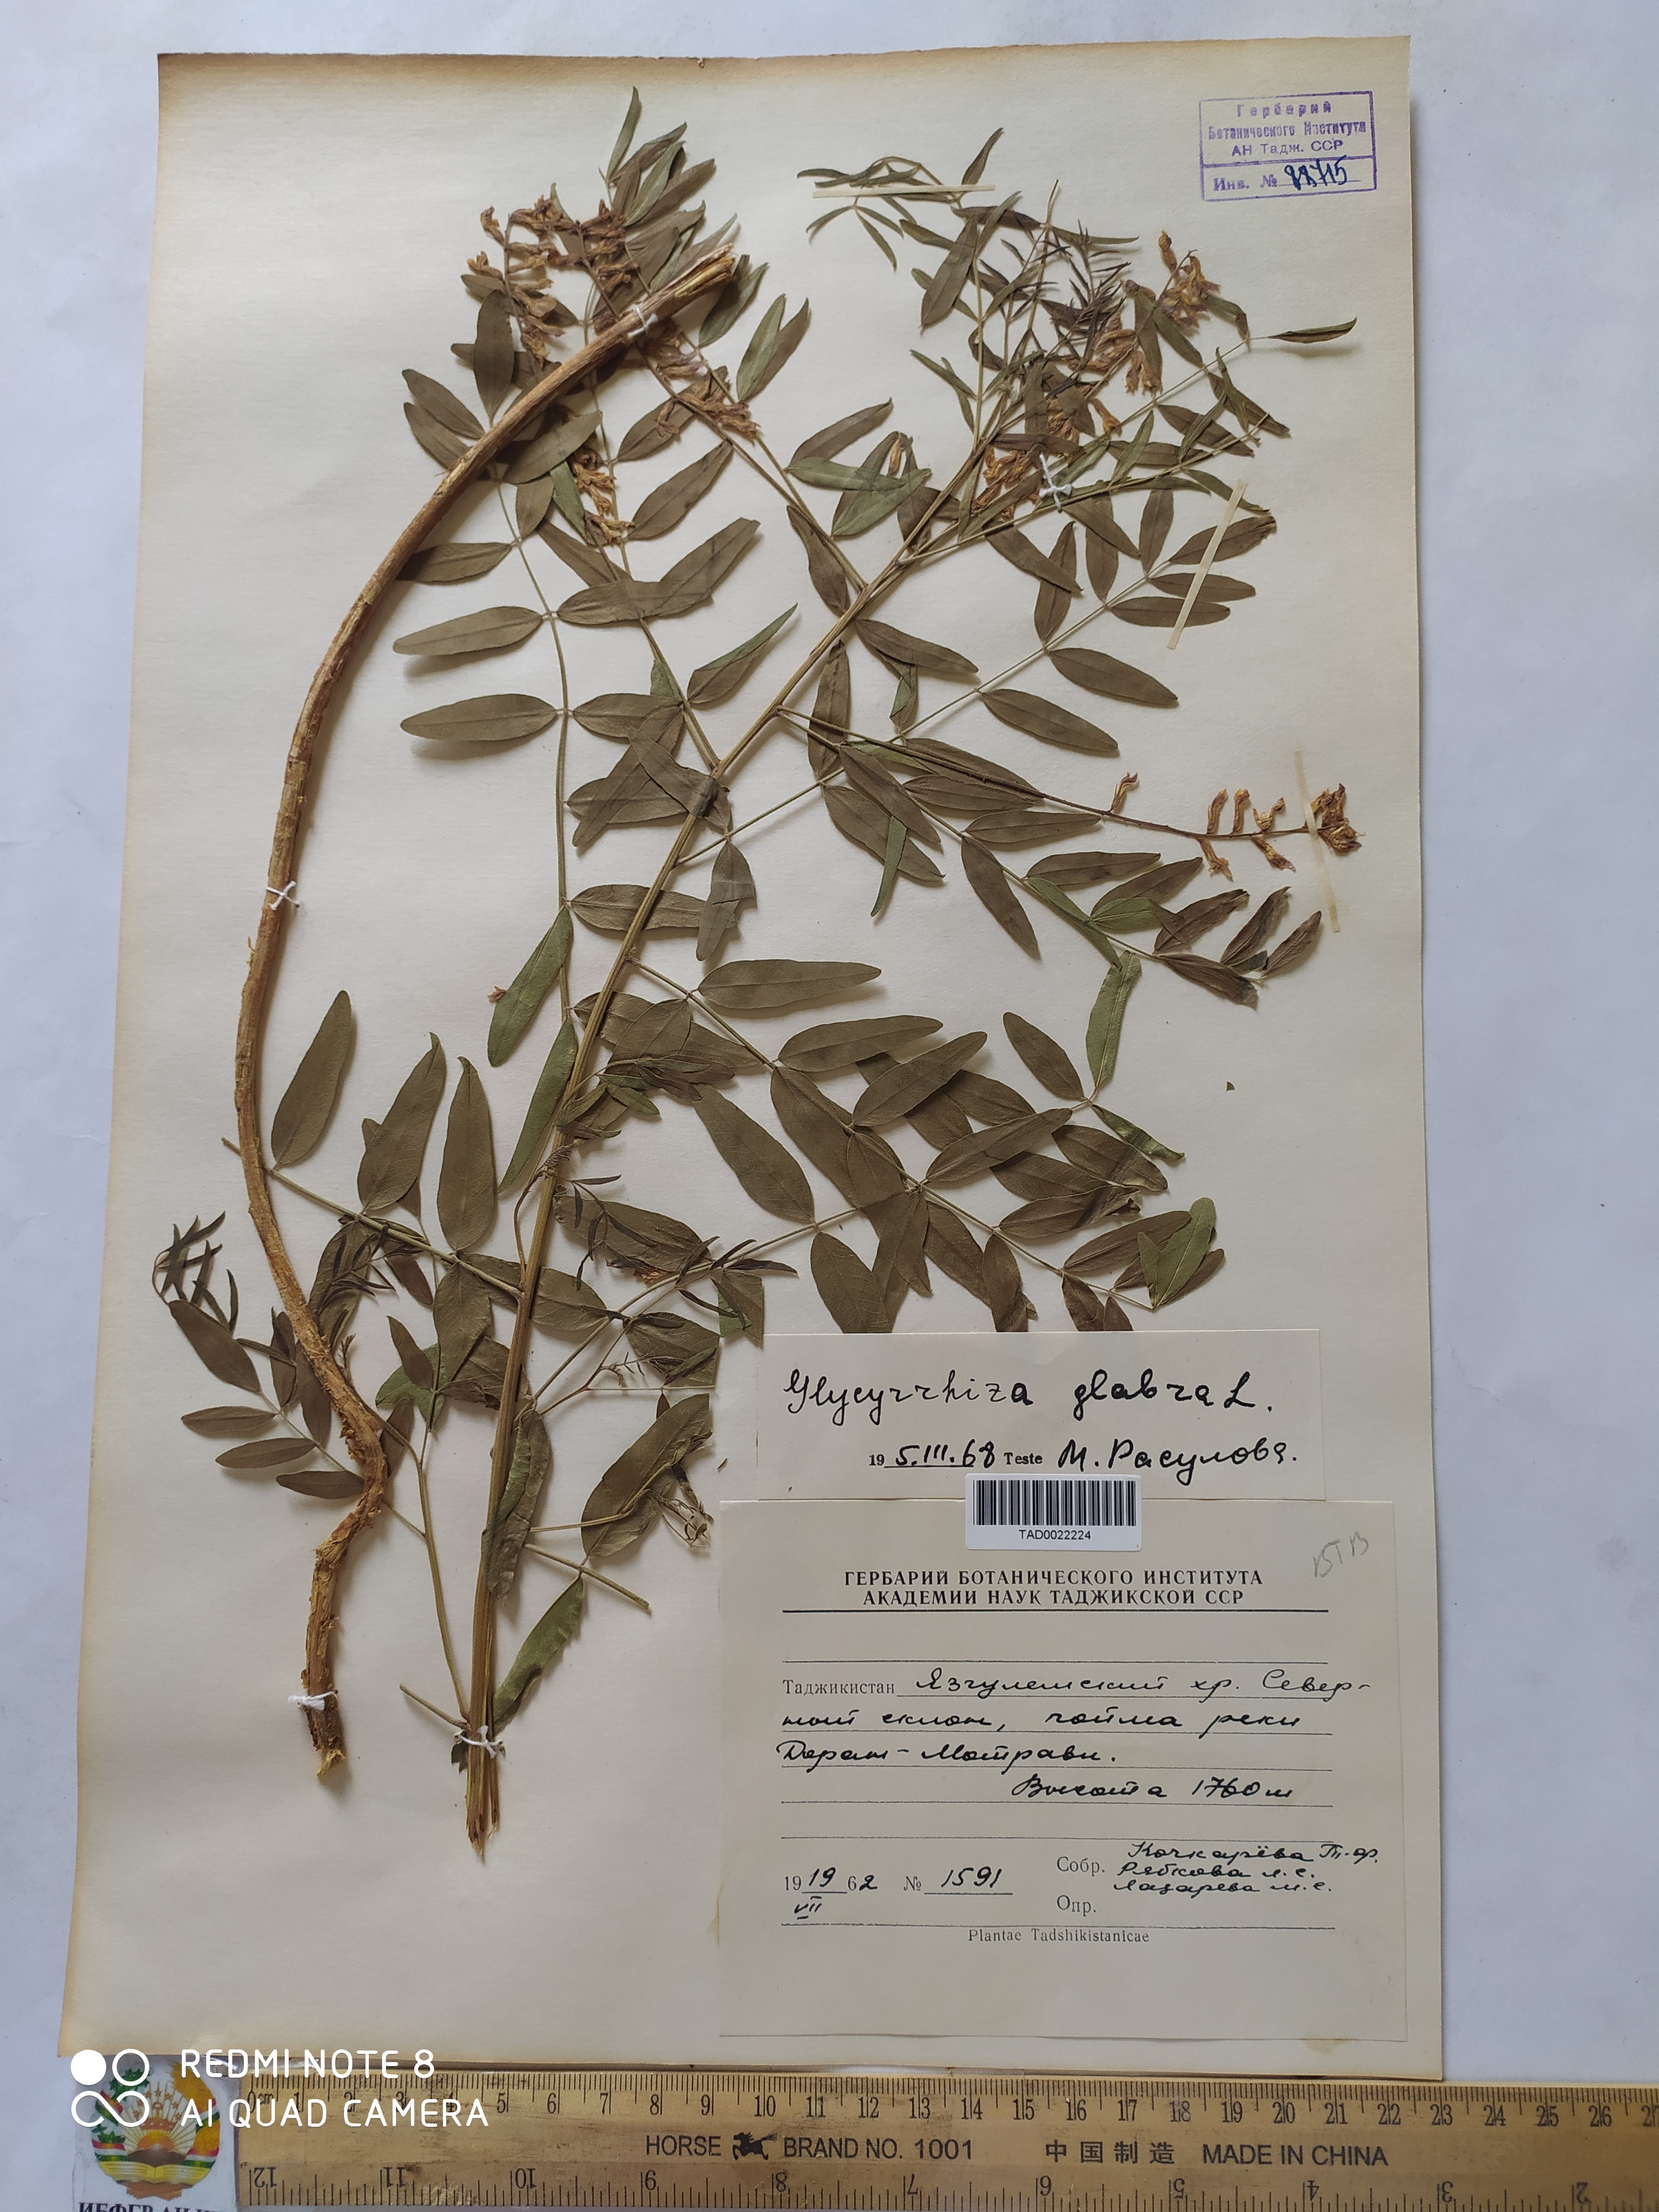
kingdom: Plantae
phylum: Tracheophyta
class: Magnoliopsida
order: Fabales
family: Fabaceae
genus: Glycyrrhiza
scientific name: Glycyrrhiza glabra
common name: Liquorice
